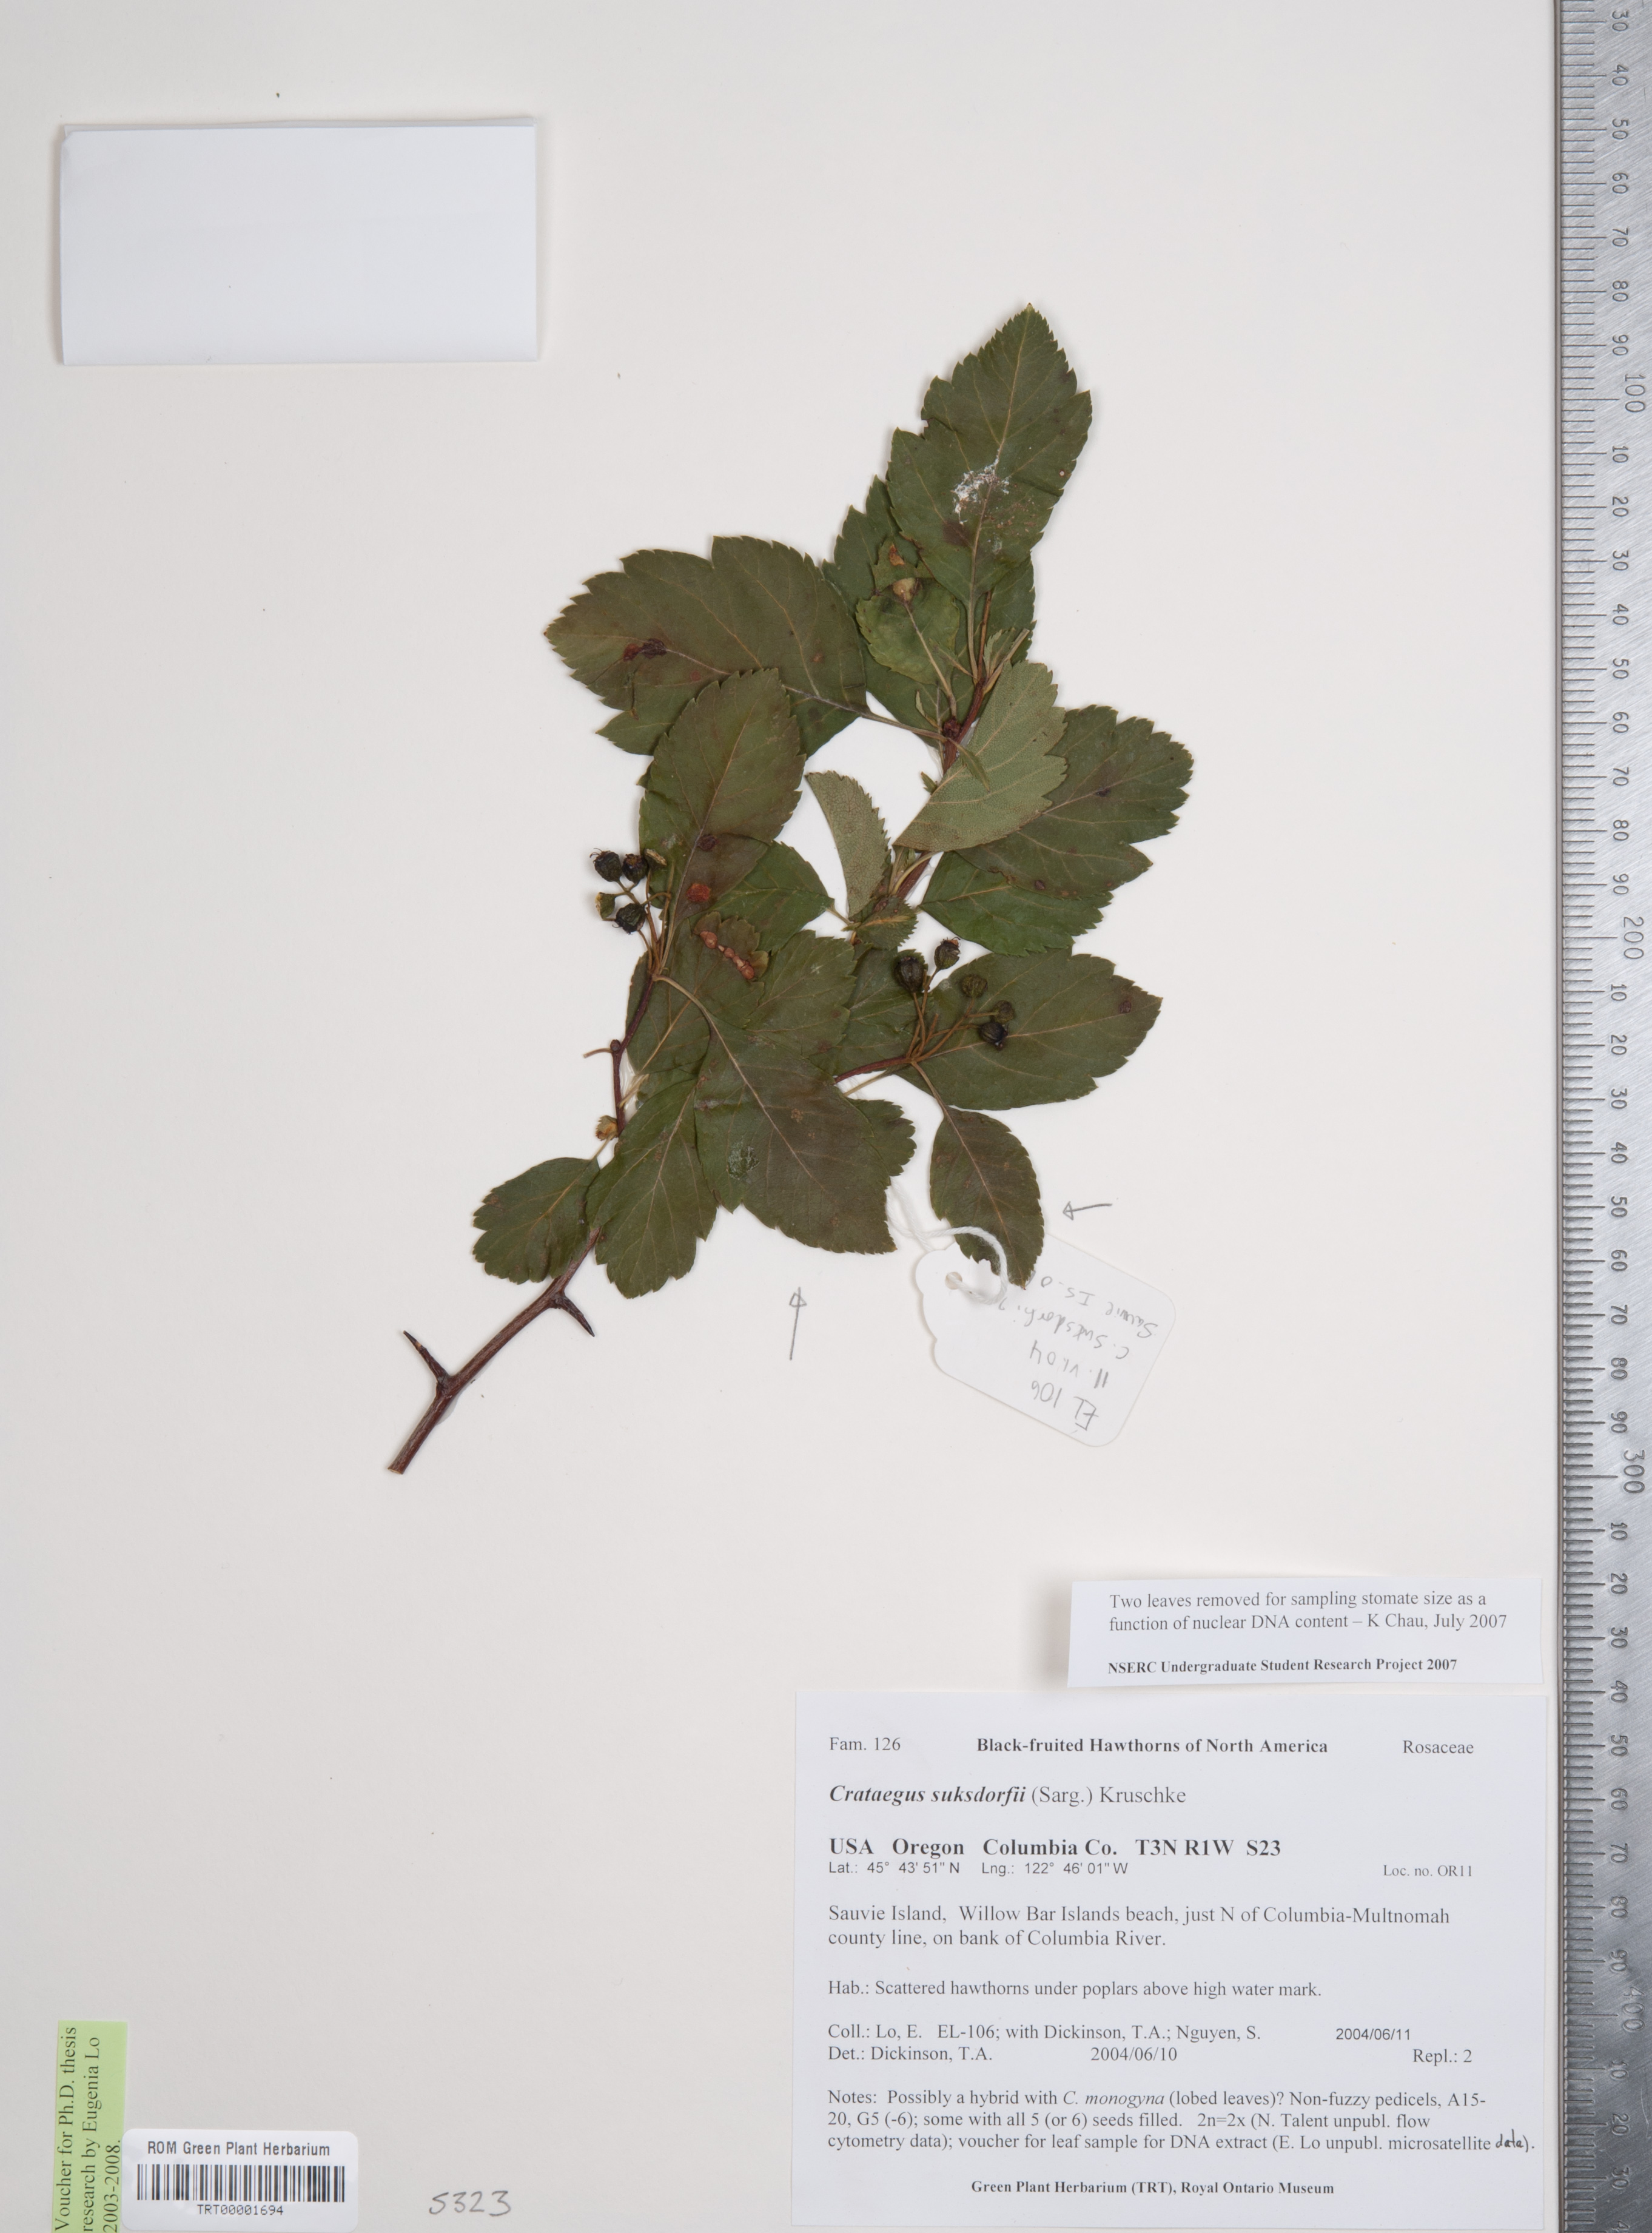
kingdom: Plantae
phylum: Tracheophyta
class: Magnoliopsida
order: Rosales
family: Rosaceae
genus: Crataegus
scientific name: Crataegus gaylussacia
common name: Huckleberry hawthorn
